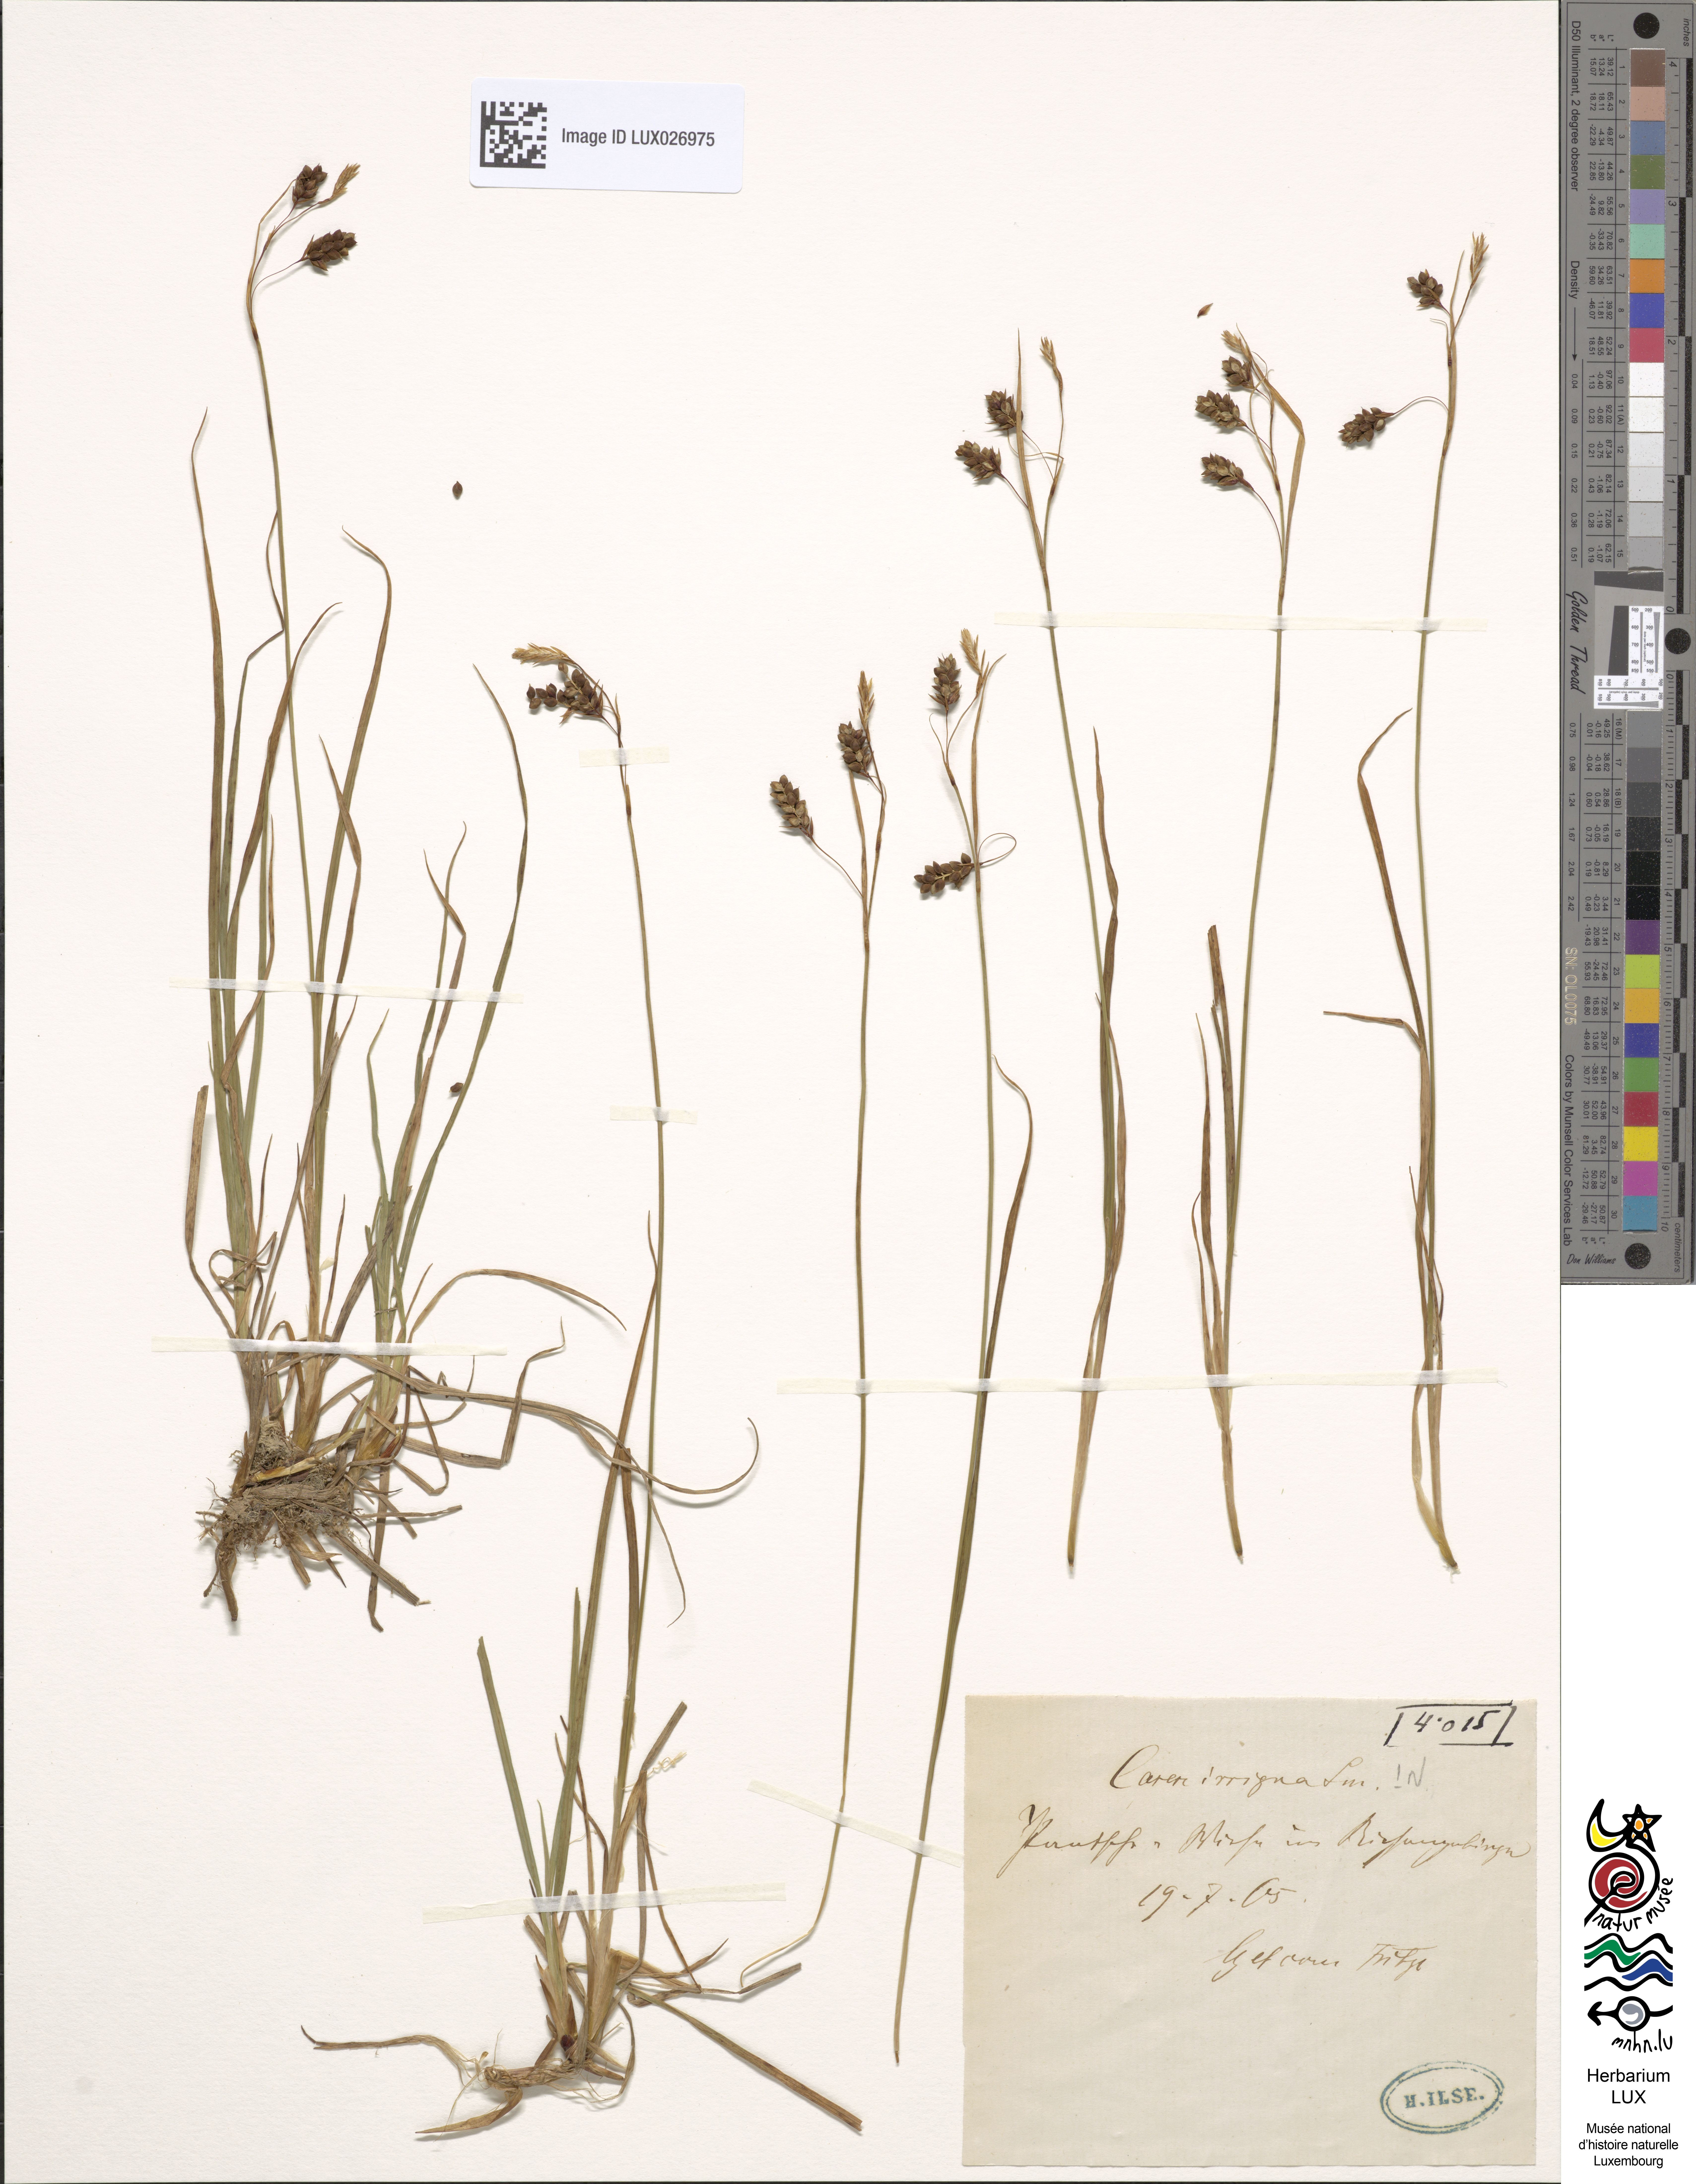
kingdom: Plantae
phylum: Tracheophyta
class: Liliopsida
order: Poales
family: Cyperaceae
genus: Carex
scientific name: Carex magellanica
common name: Bog sedge
